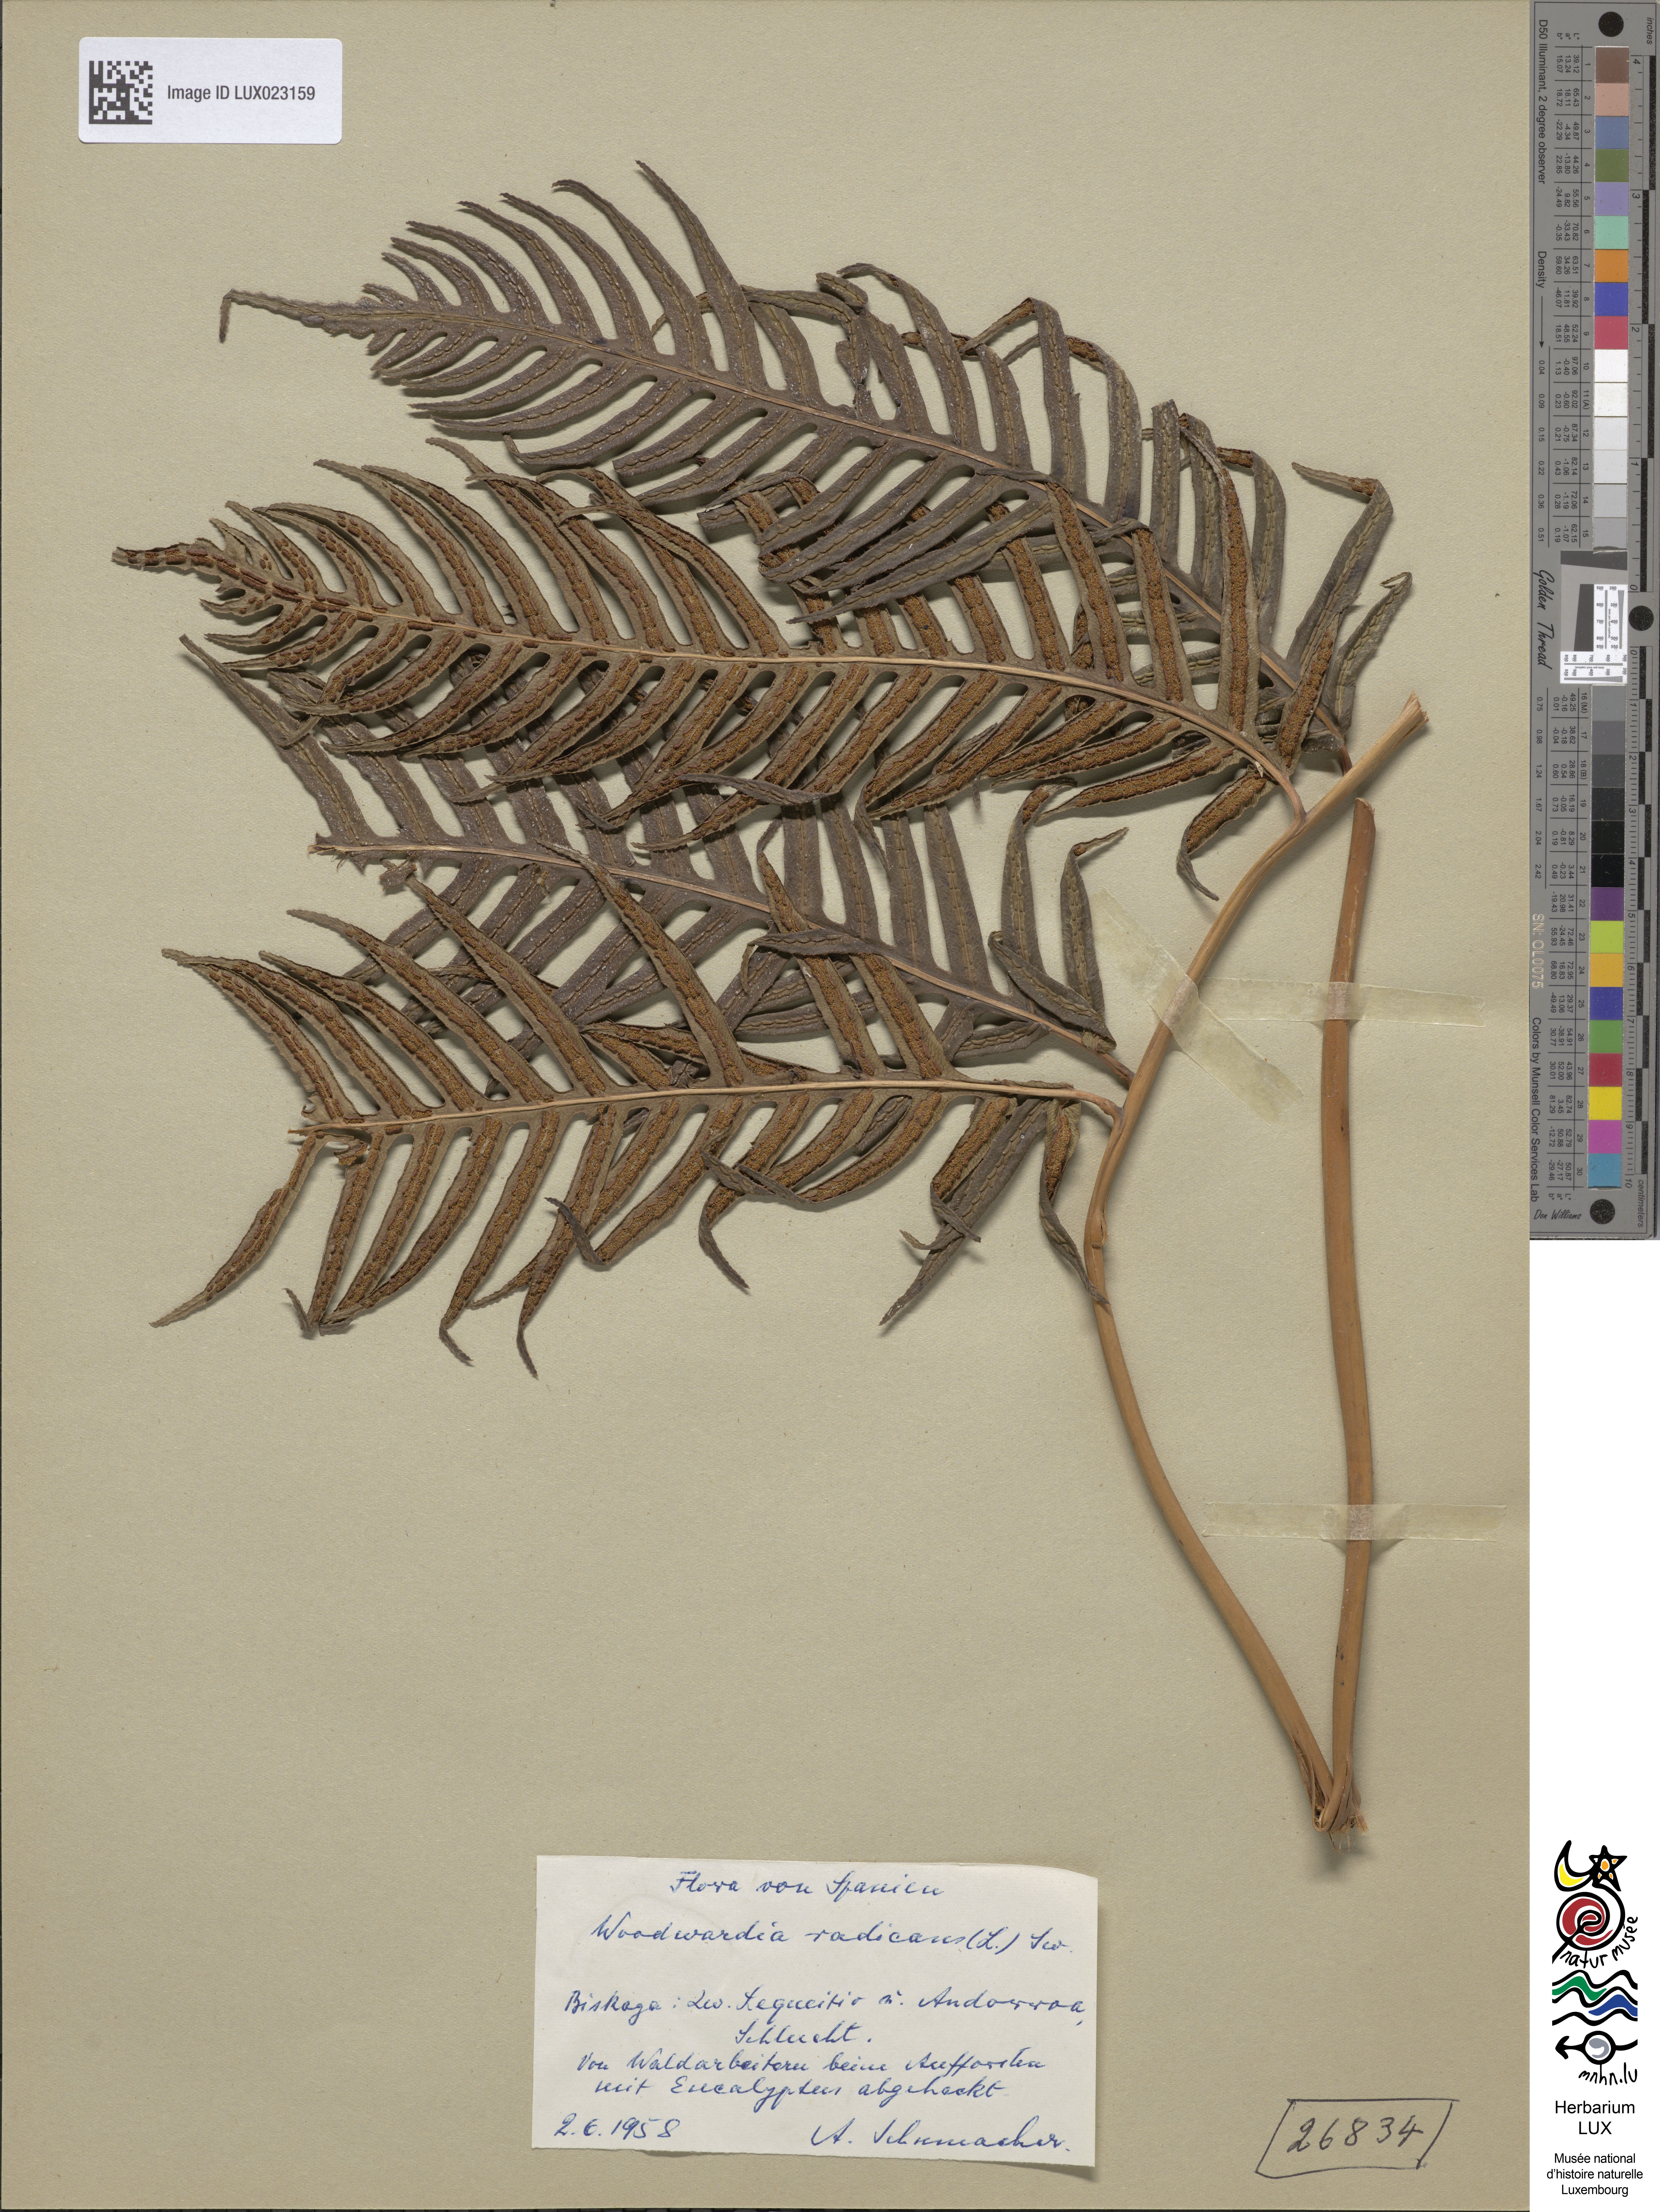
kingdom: Plantae
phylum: Tracheophyta
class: Polypodiopsida
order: Polypodiales
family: Blechnaceae
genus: Woodwardia
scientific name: Woodwardia radicans
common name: Rooting chainfern
